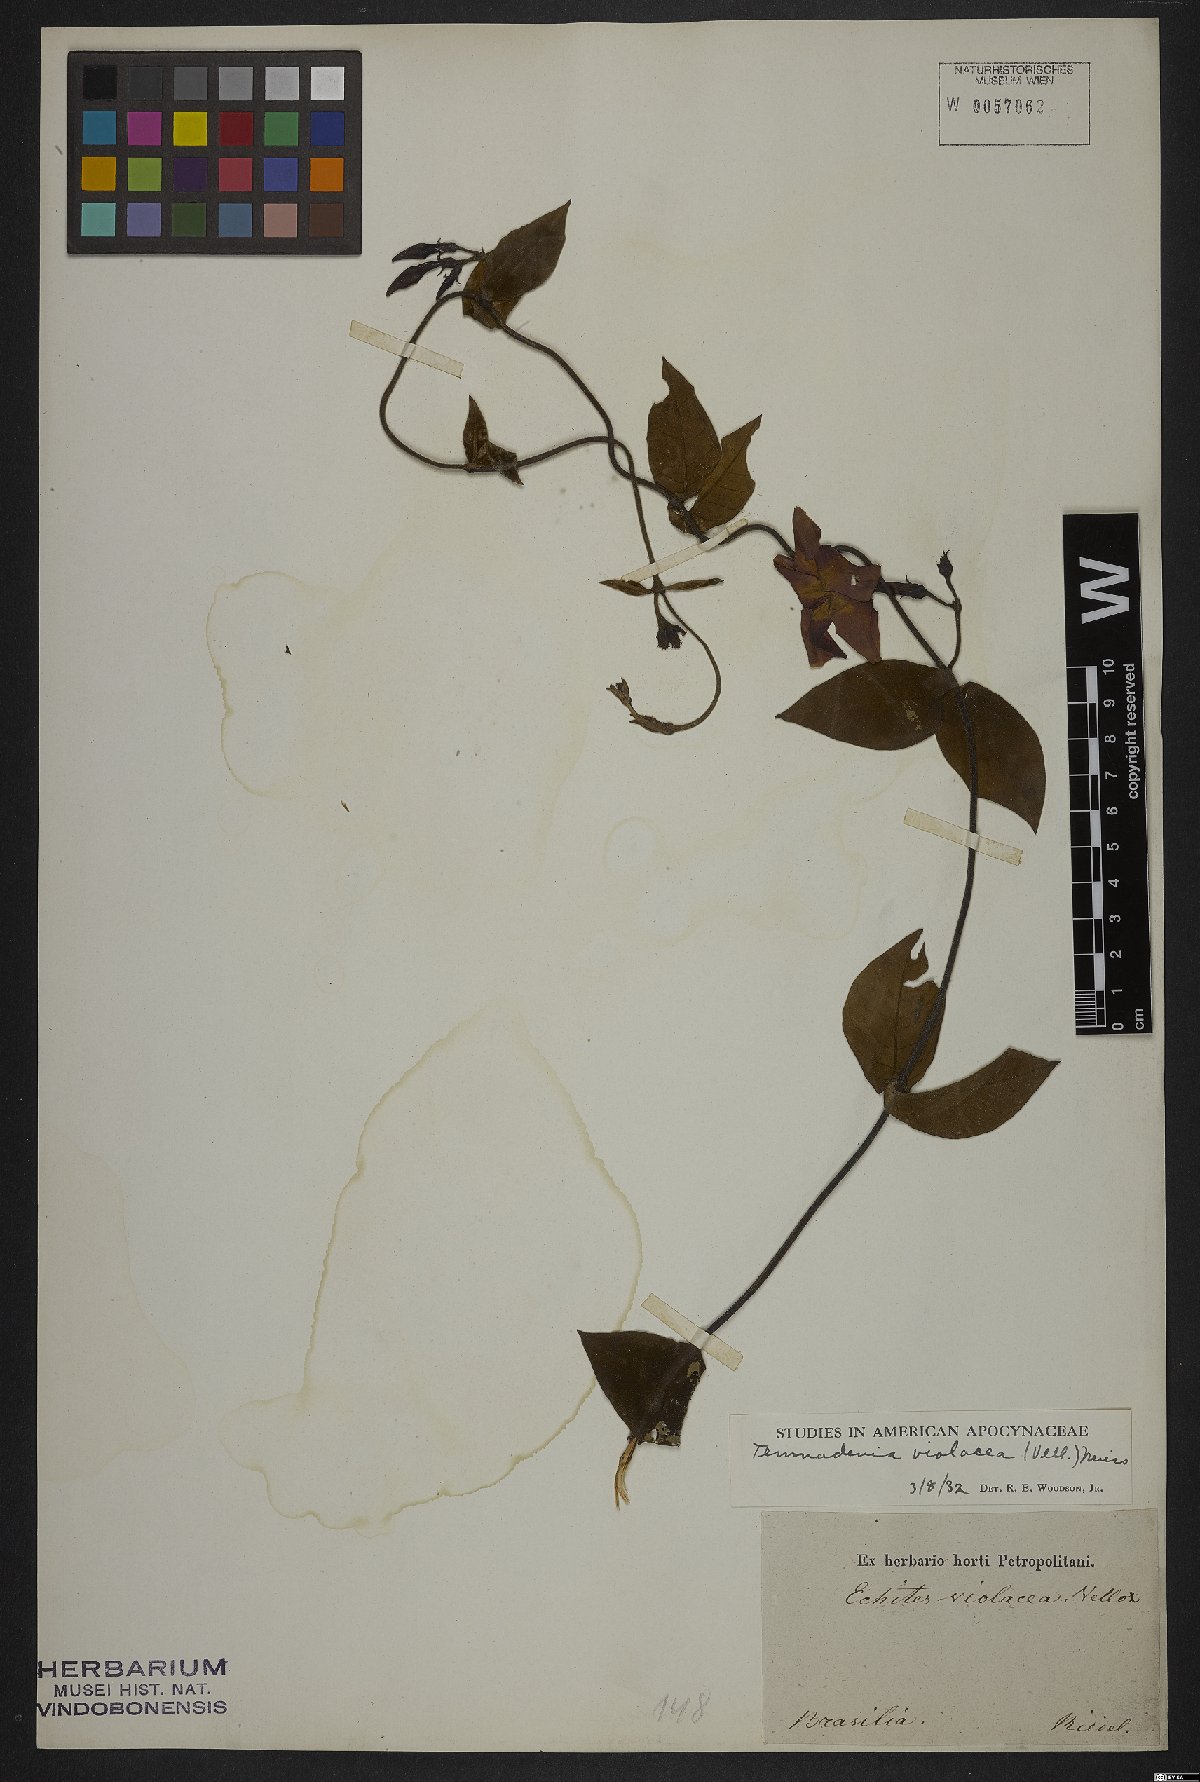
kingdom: Plantae
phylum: Tracheophyta
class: Magnoliopsida
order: Gentianales
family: Apocynaceae
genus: Temnadenia
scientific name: Temnadenia violacea
